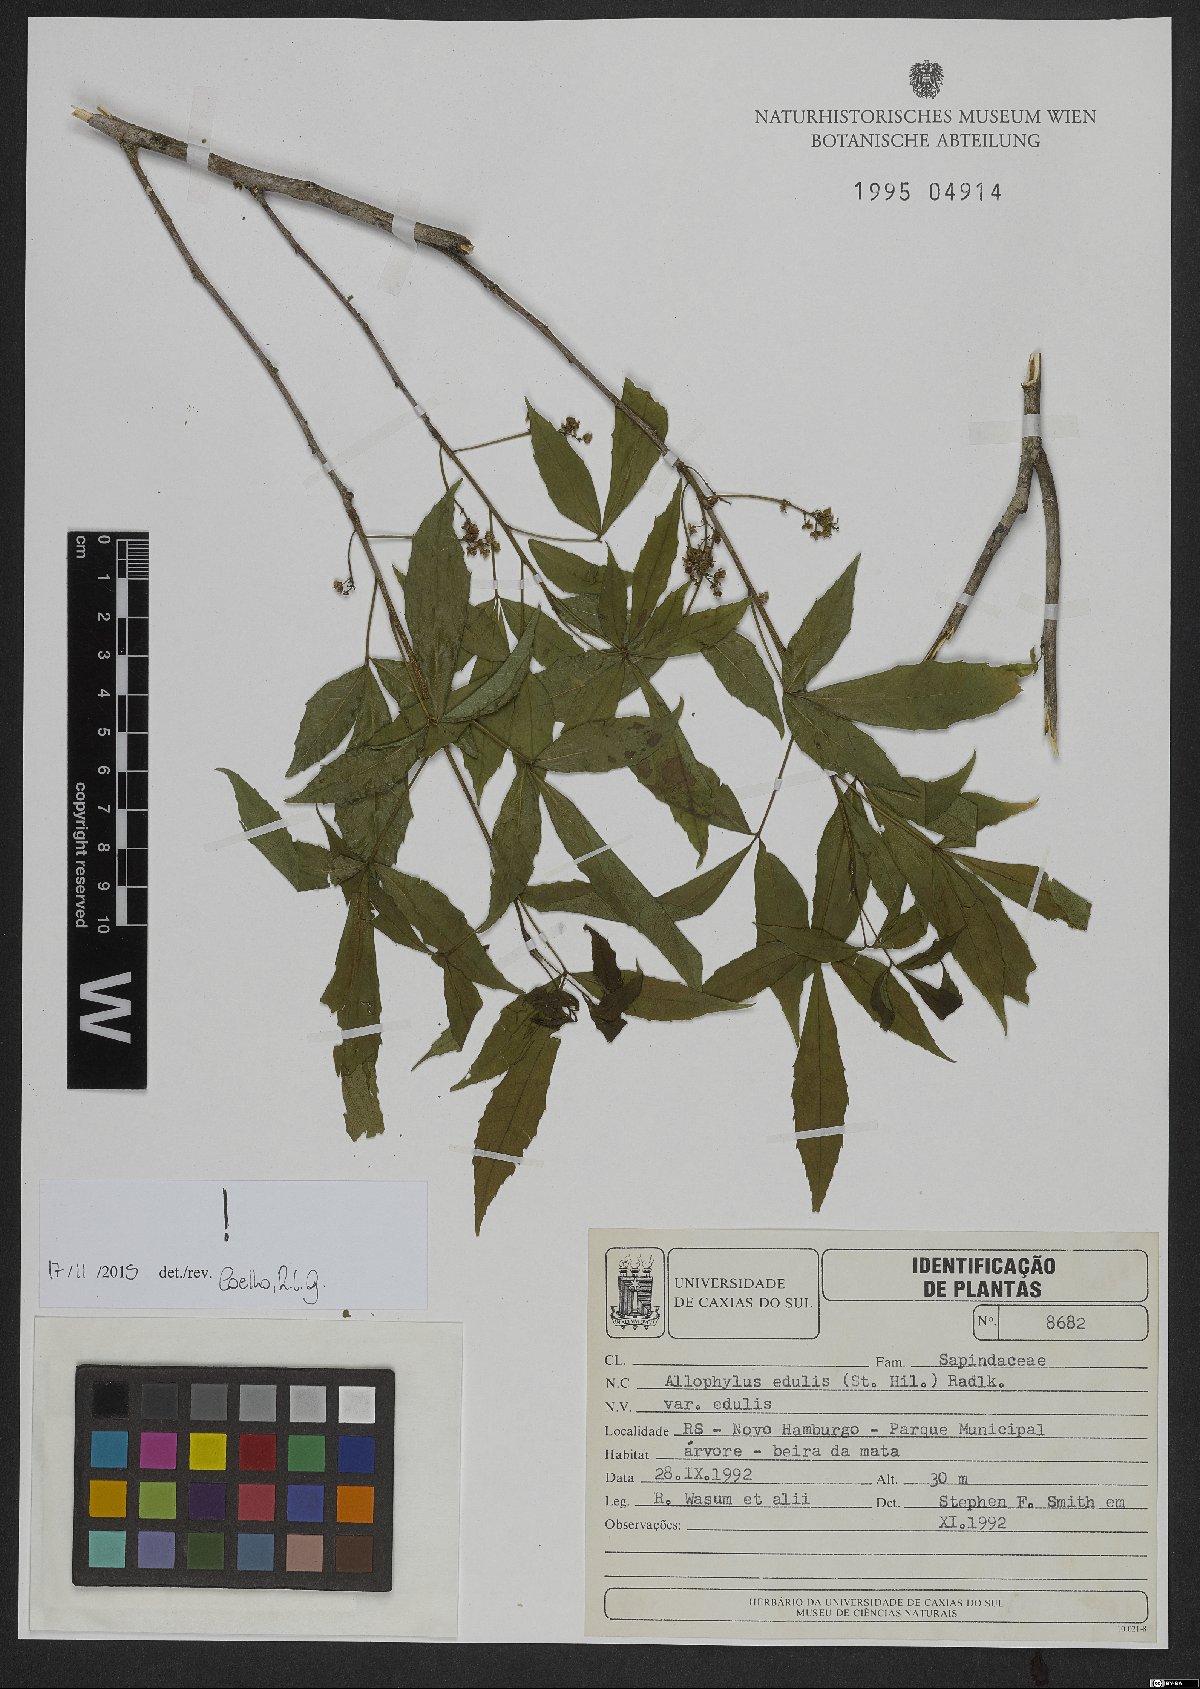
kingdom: Plantae
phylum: Tracheophyta
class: Magnoliopsida
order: Sapindales
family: Sapindaceae
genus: Allophylus
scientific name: Allophylus edulis
